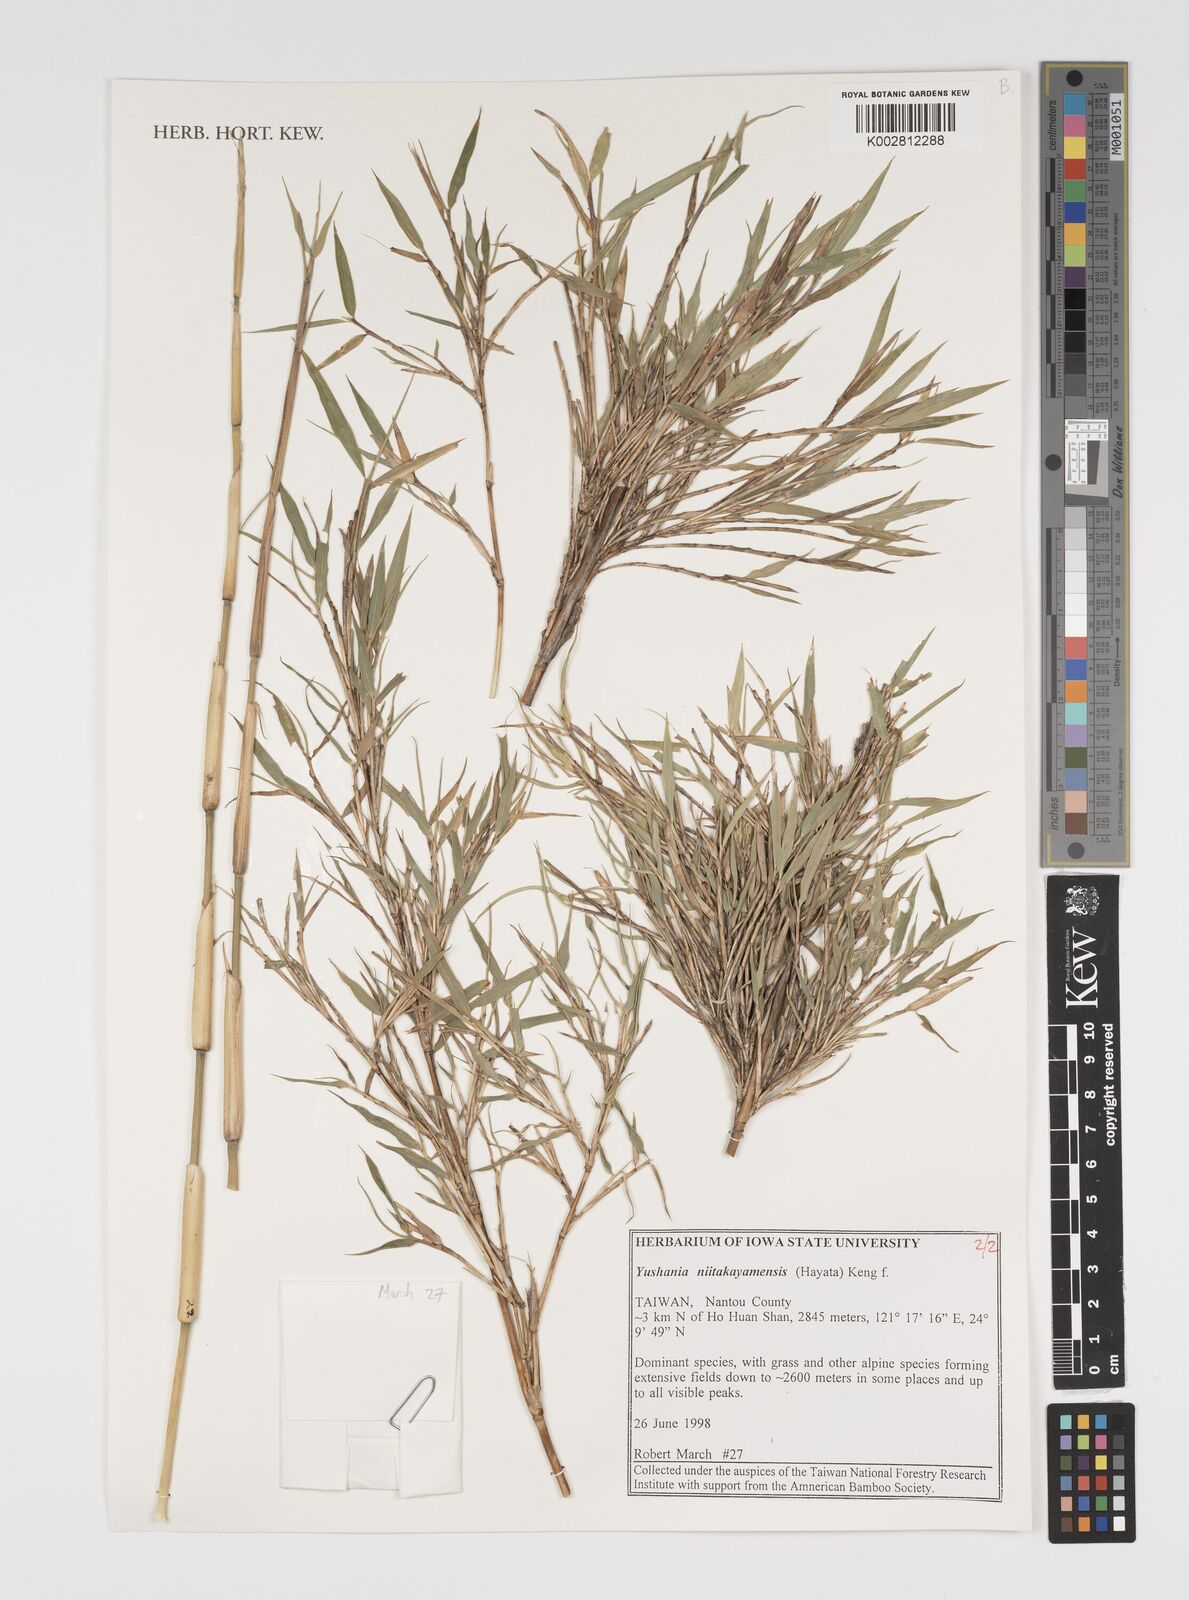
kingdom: Plantae
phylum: Tracheophyta
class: Liliopsida
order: Poales
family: Poaceae
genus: Yushania
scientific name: Yushania niitakayamensis
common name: Yushan cane
